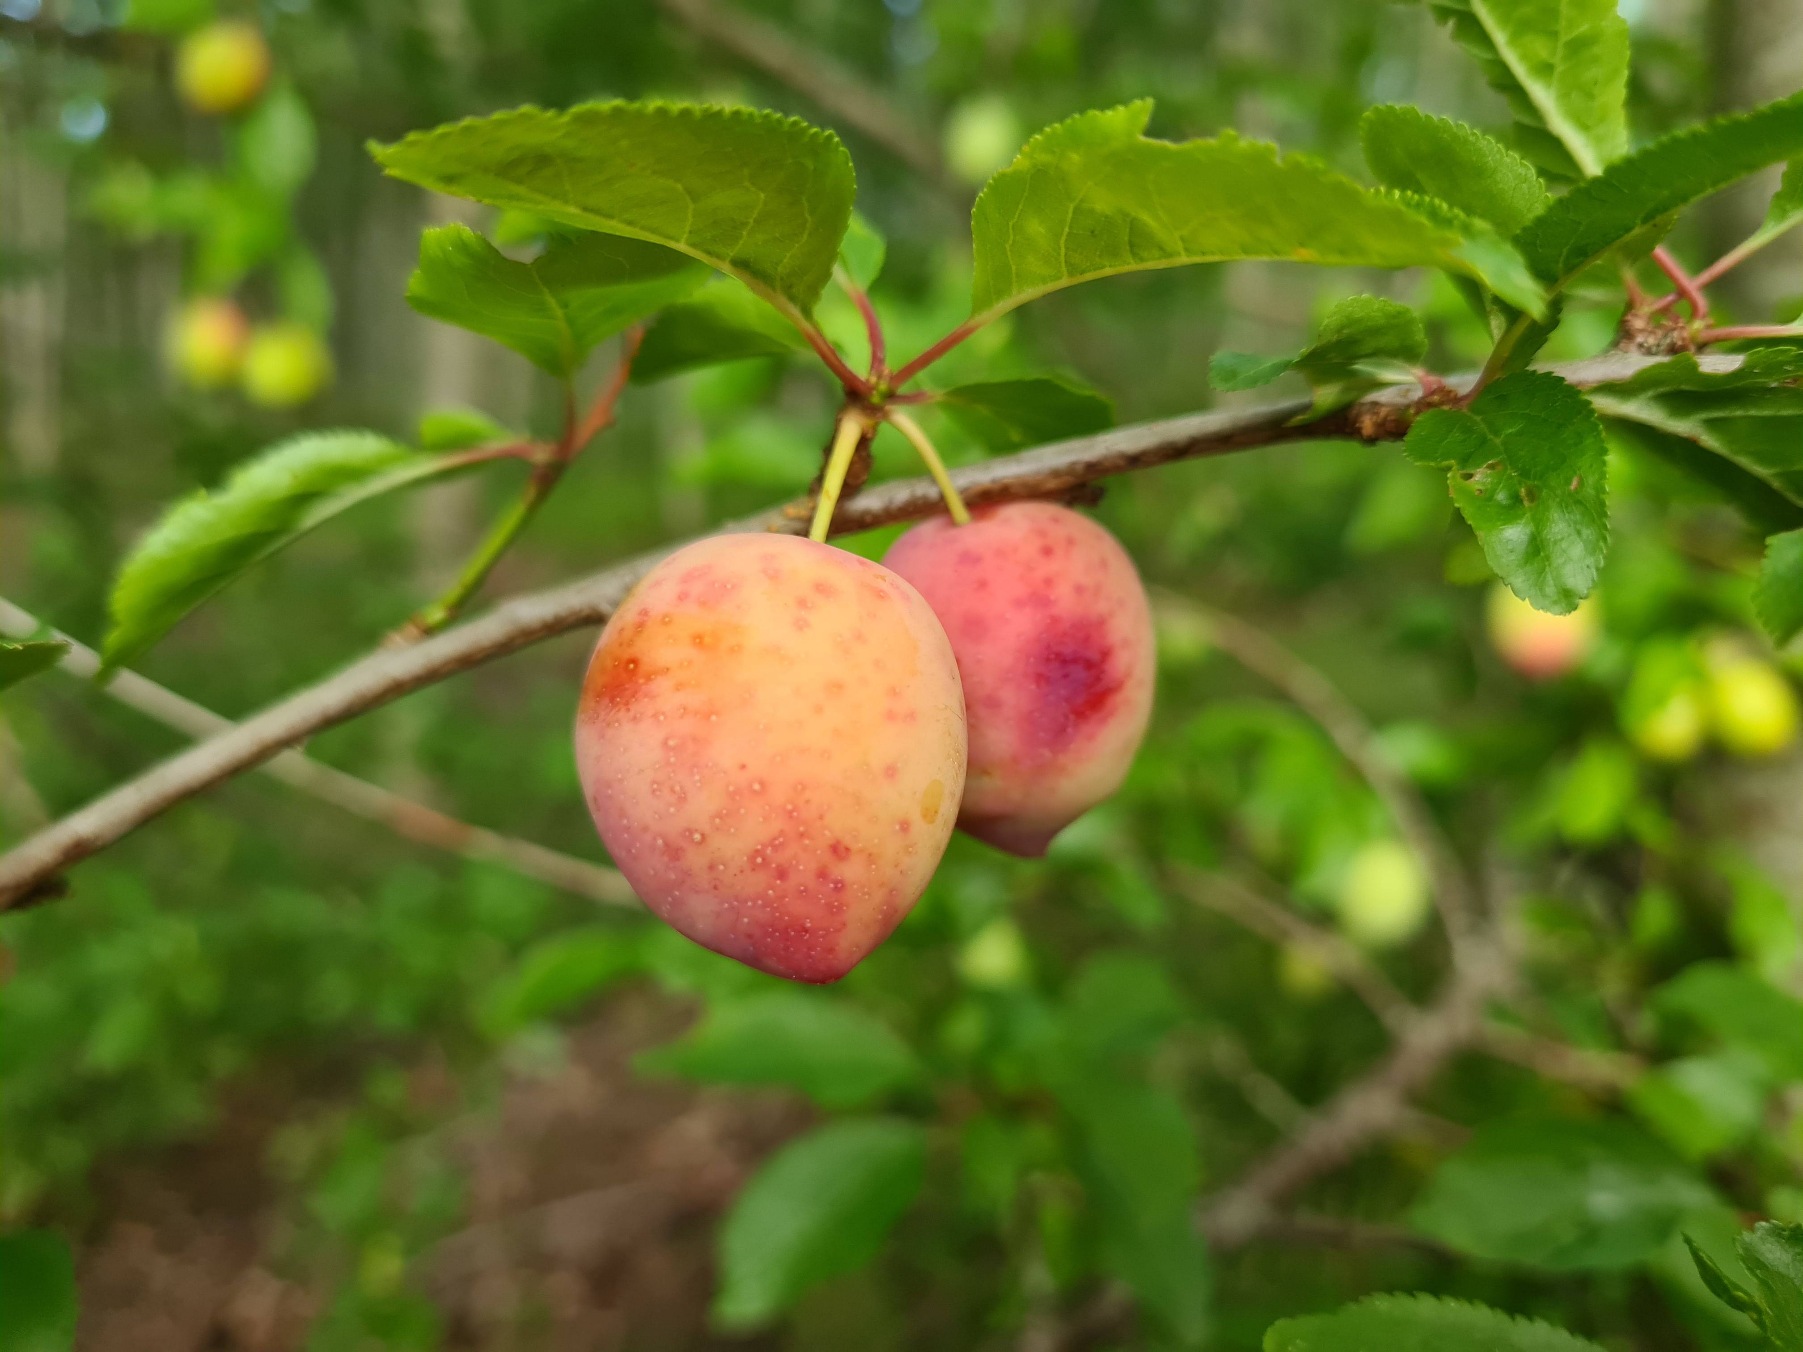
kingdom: Plantae
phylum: Tracheophyta
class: Magnoliopsida
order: Rosales
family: Rosaceae
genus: Prunus
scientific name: Prunus cerasifera
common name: Mirabel
